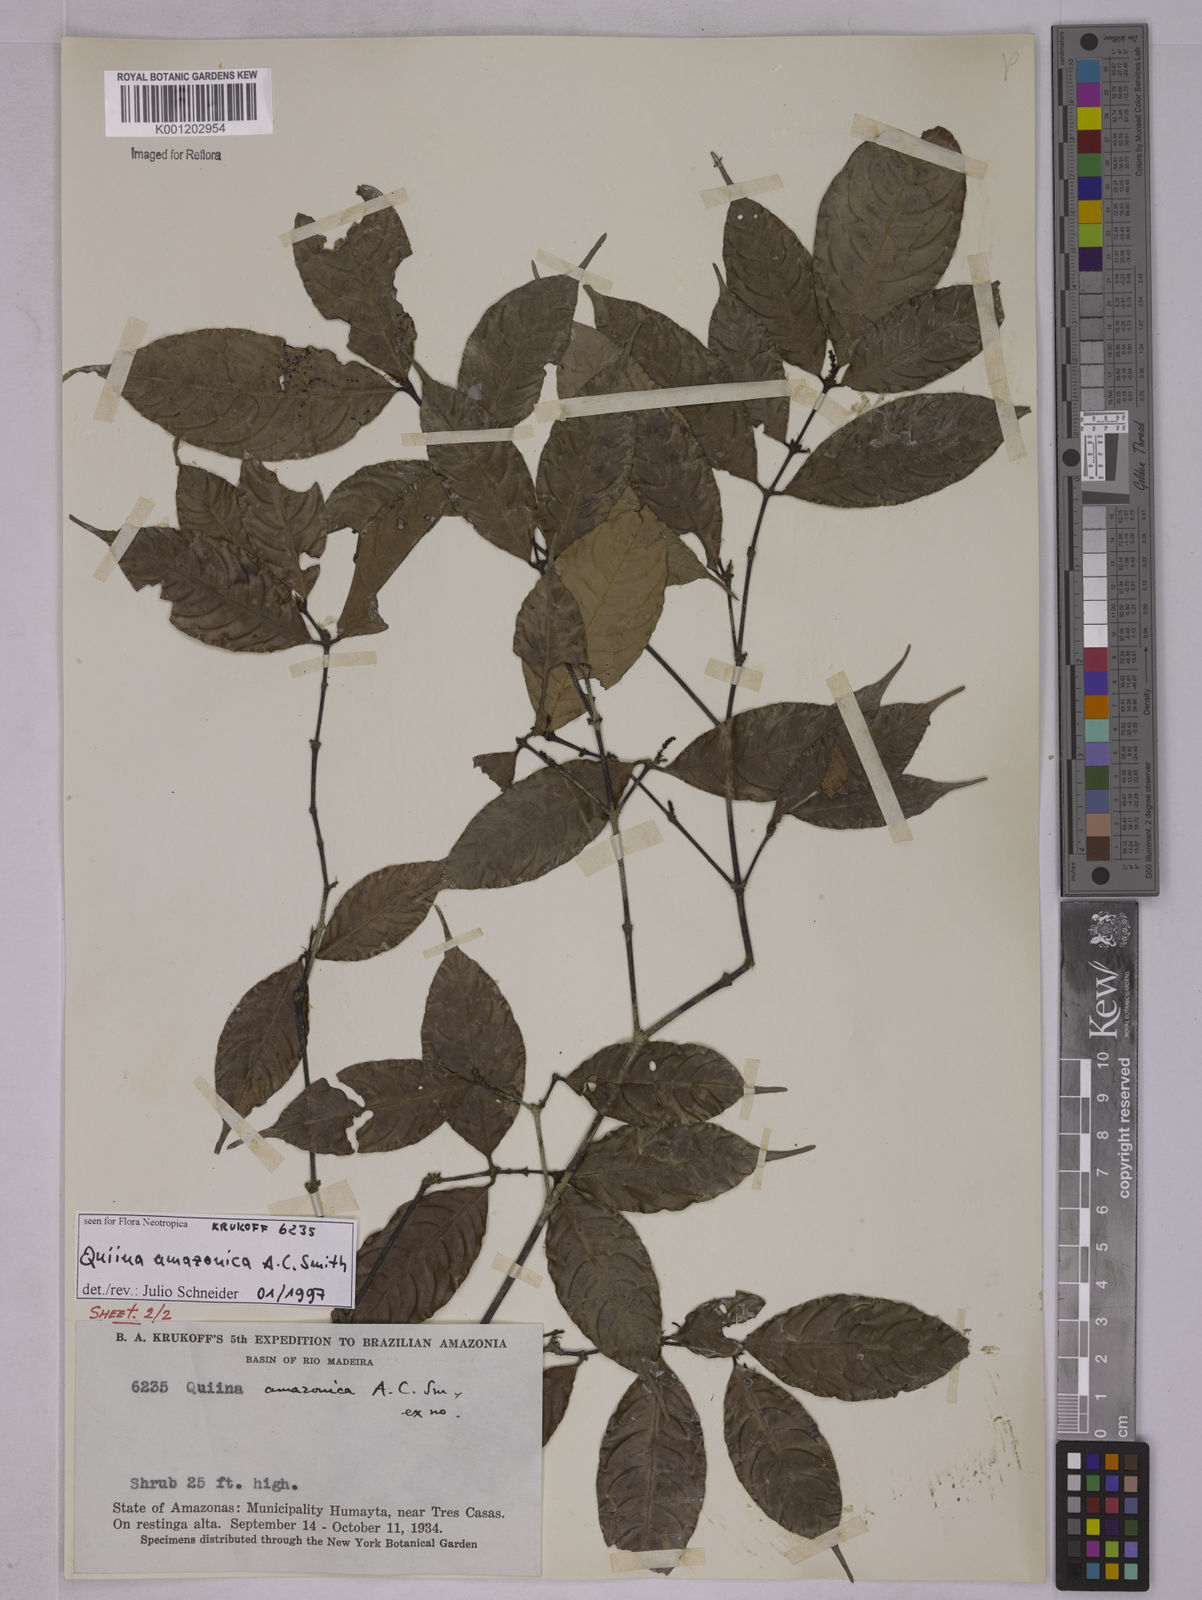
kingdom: Plantae
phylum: Tracheophyta
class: Magnoliopsida
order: Malpighiales
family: Quiinaceae
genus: Quiina
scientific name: Quiina amazonica
